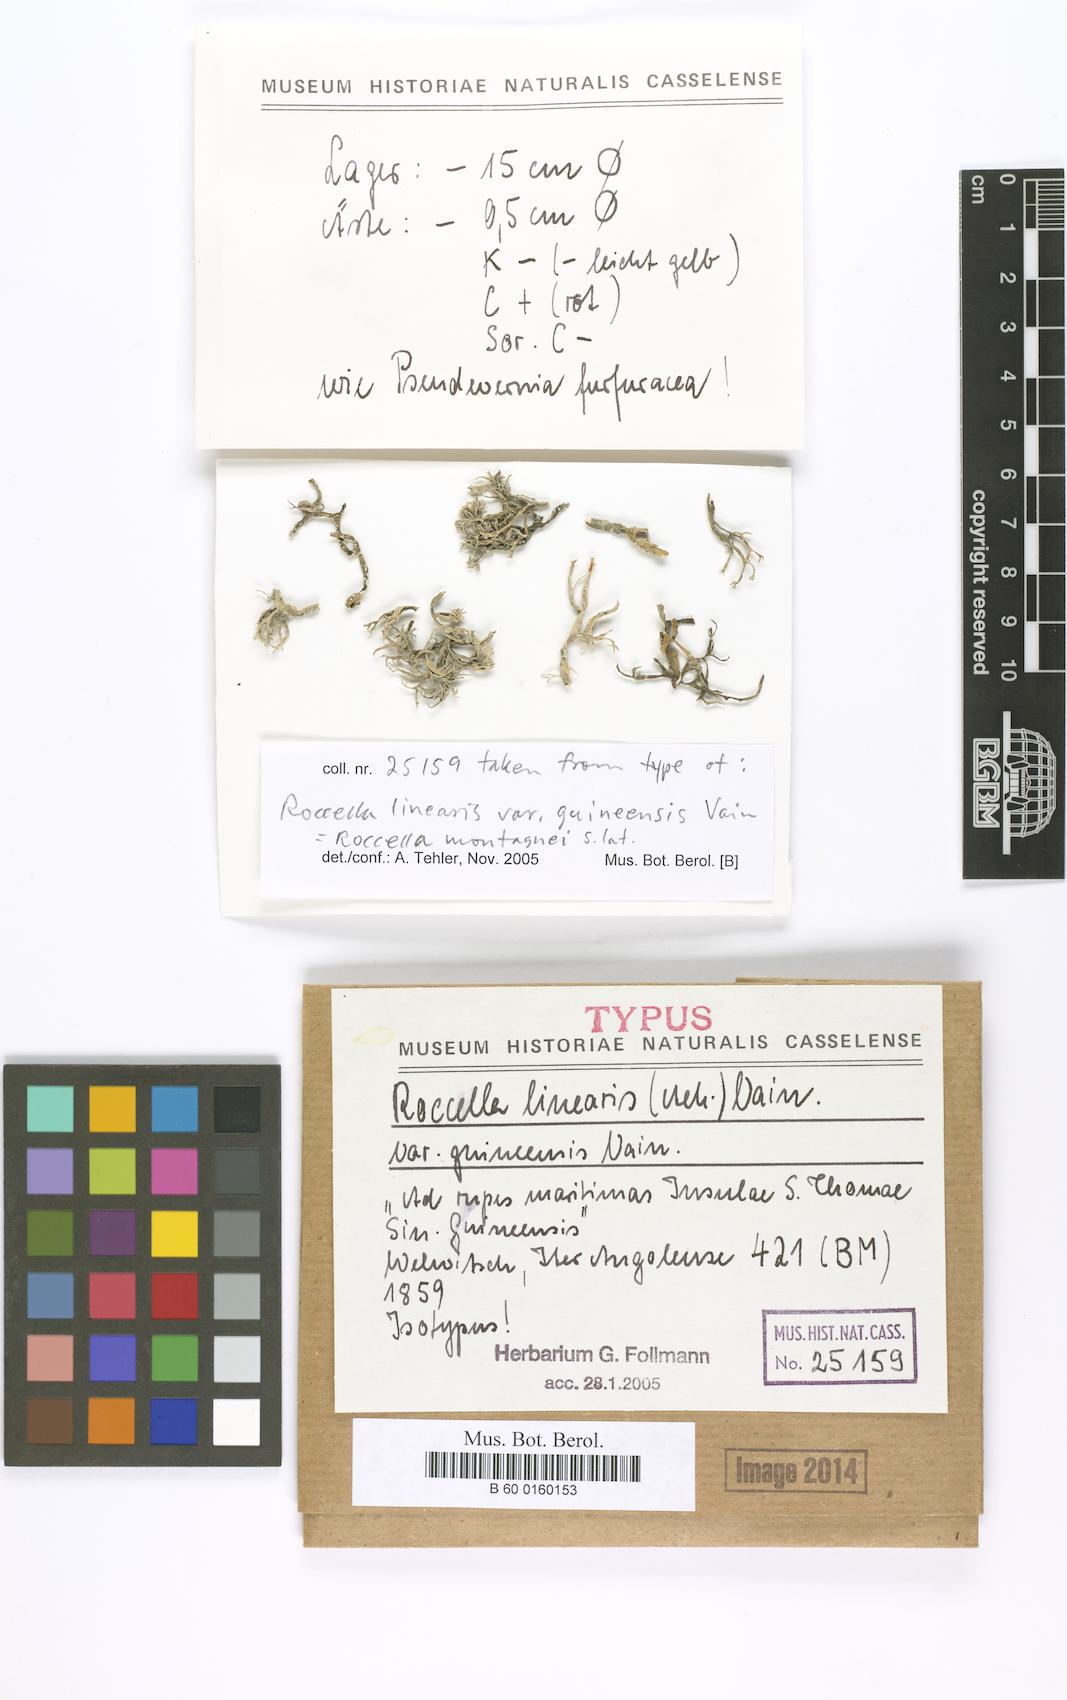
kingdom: Fungi
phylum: Ascomycota
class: Arthoniomycetes
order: Arthoniales
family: Roccellaceae
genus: Roccella
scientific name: Roccella linearis
